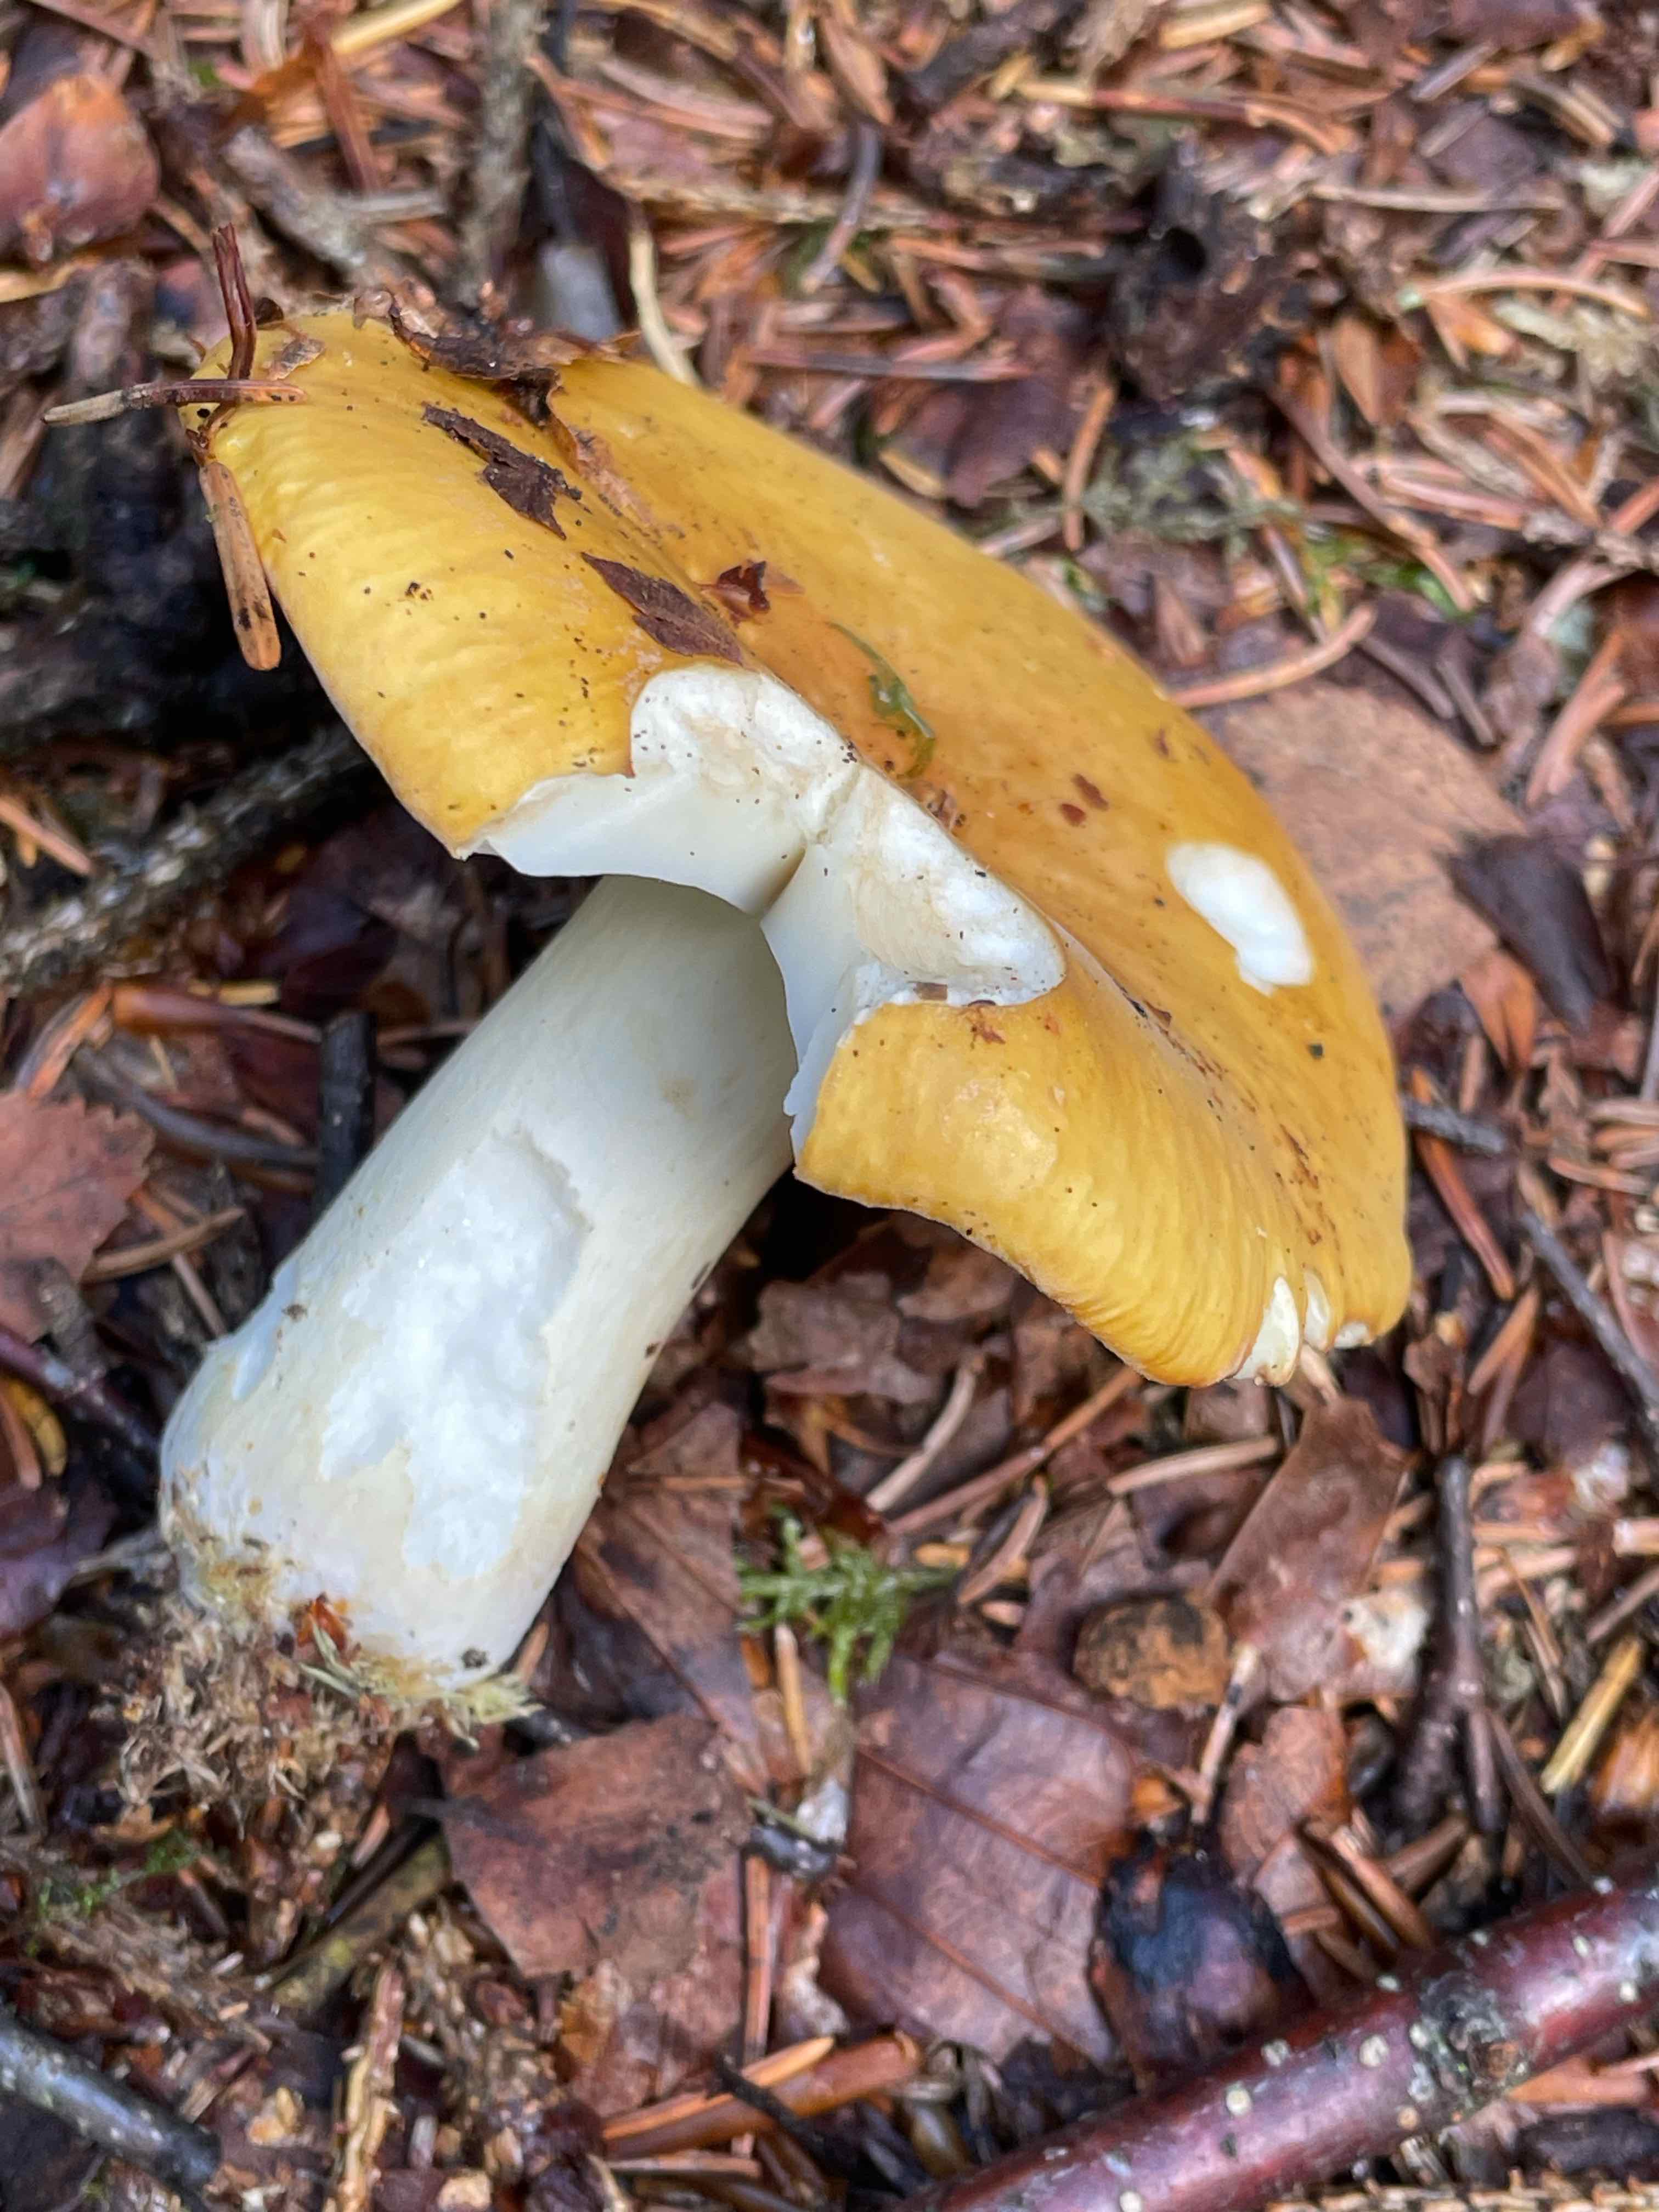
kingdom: Fungi
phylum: Basidiomycota
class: Agaricomycetes
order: Russulales
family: Russulaceae
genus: Russula
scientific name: Russula ochroleuca
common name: okkergul skørhat
